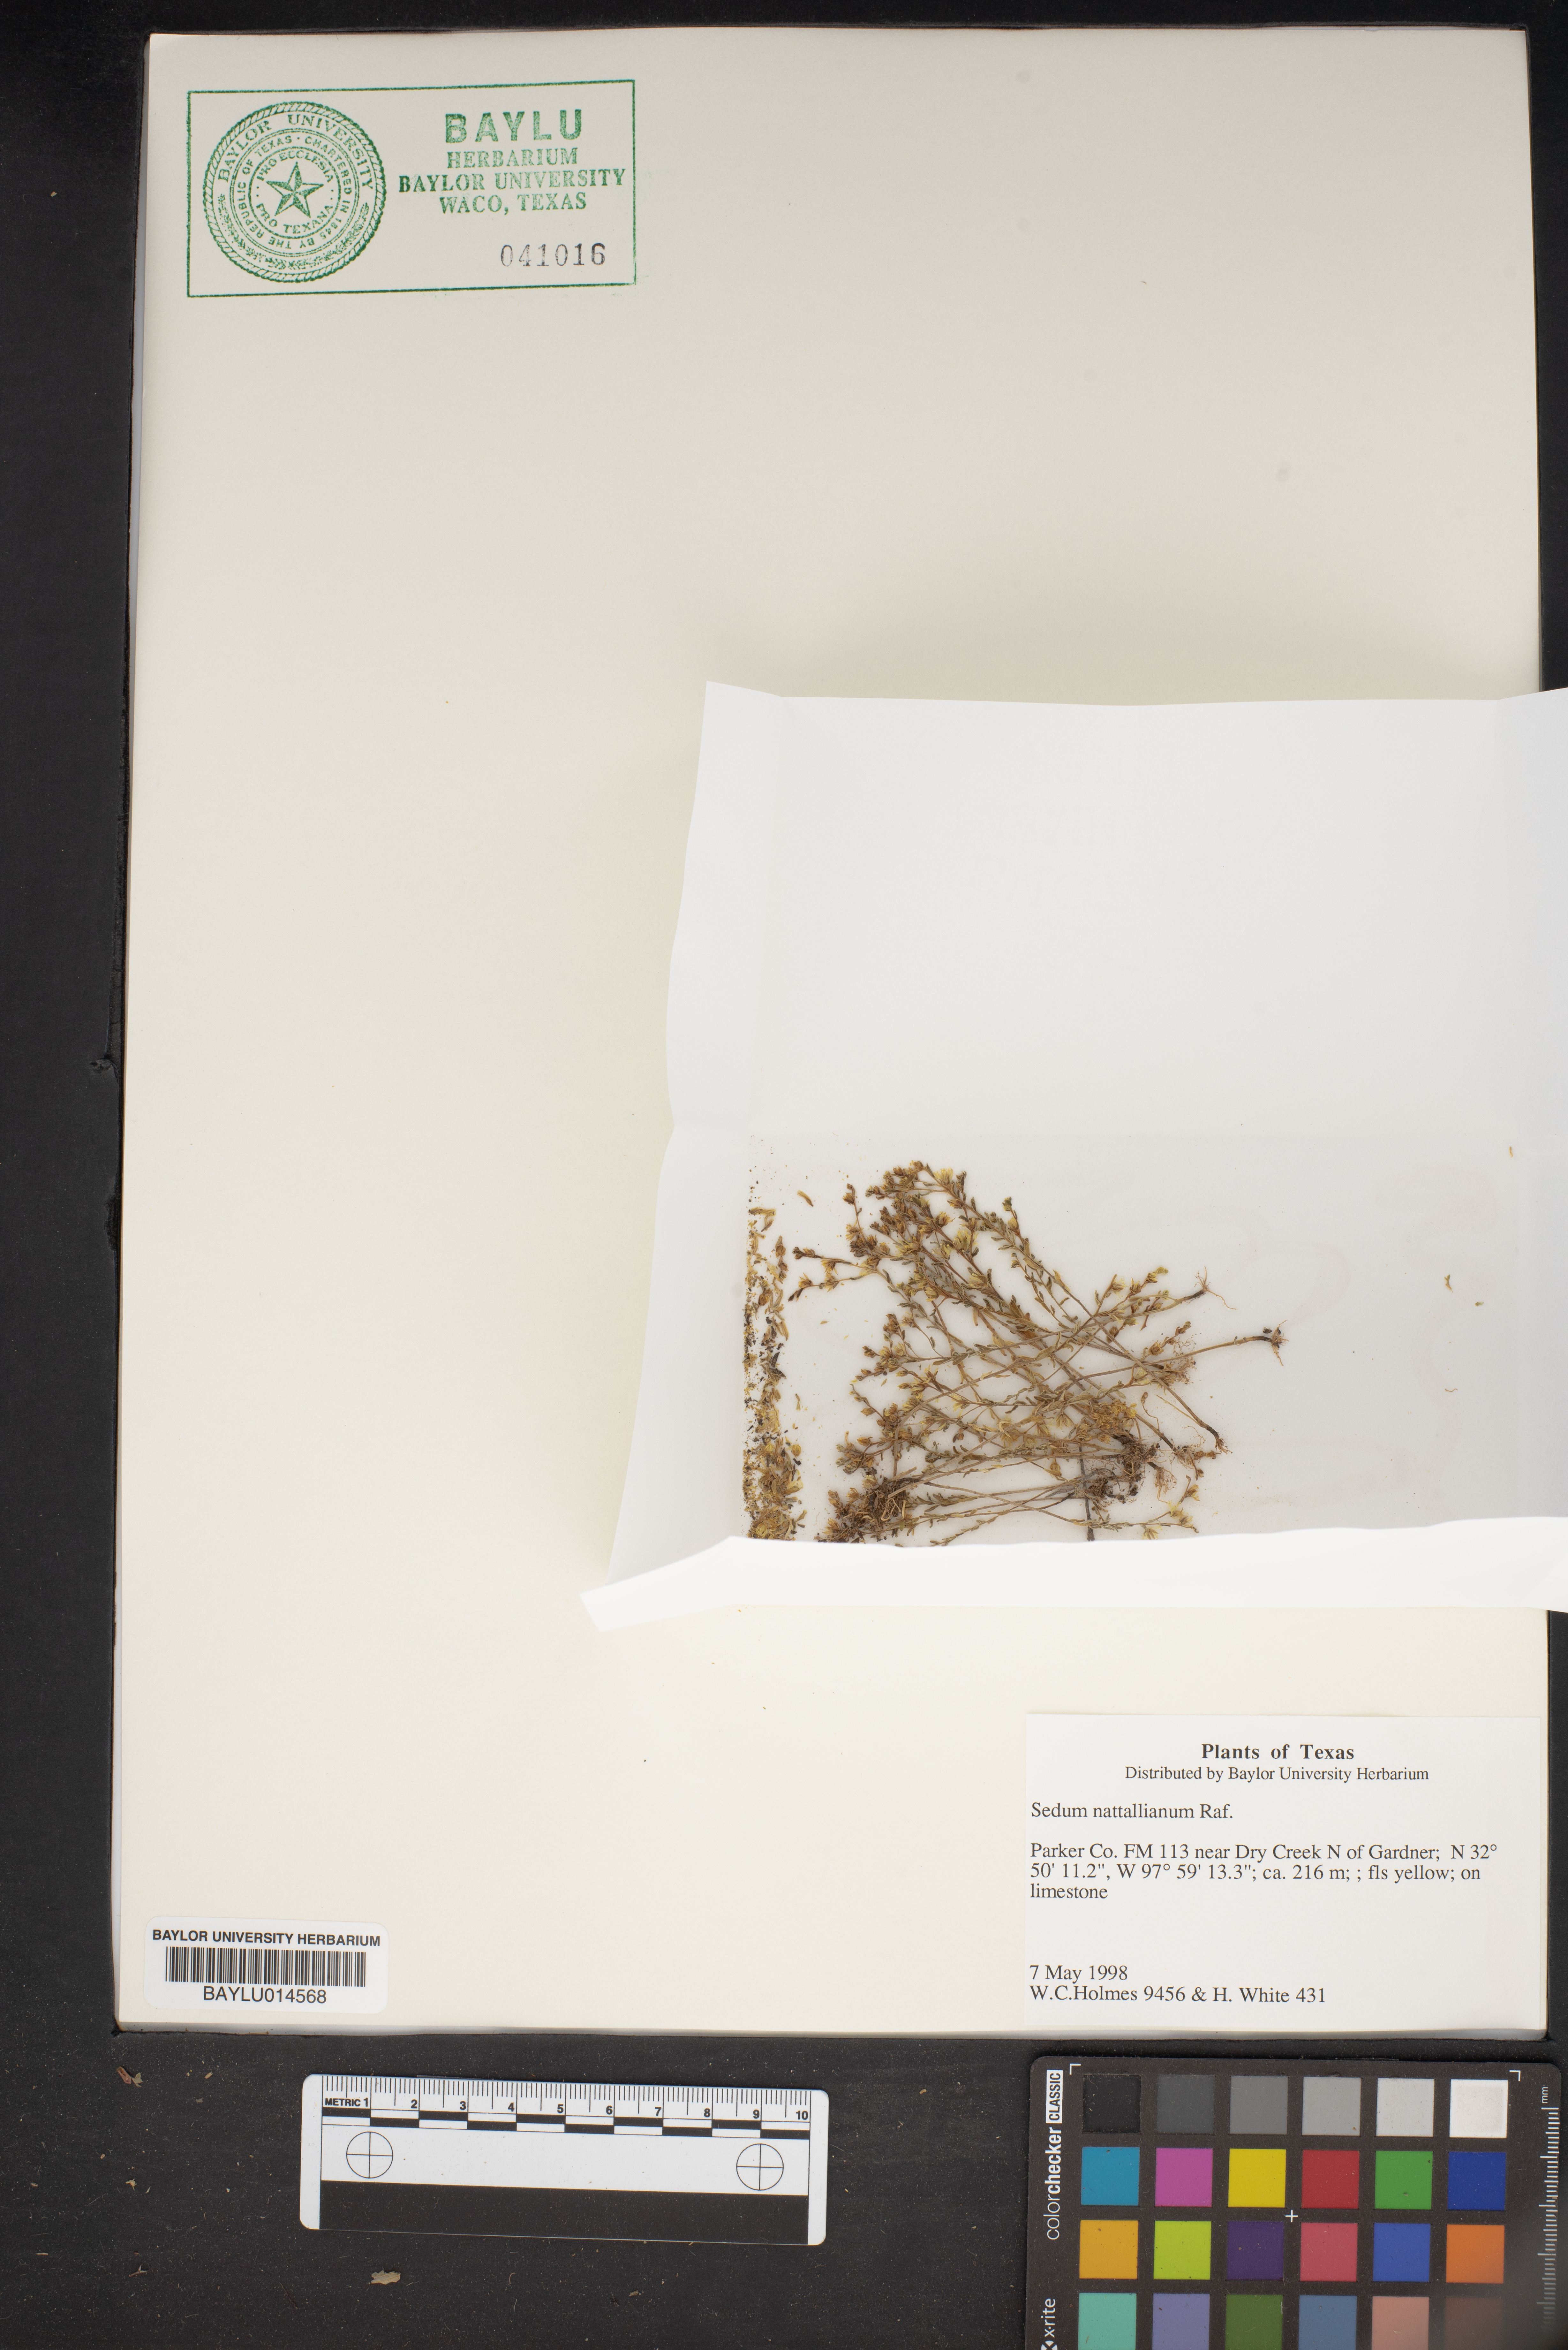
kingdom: Plantae
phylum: Tracheophyta
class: Magnoliopsida
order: Saxifragales
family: Crassulaceae
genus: Sedum
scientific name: Sedum nuttallii
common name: Yellow stonecrop
